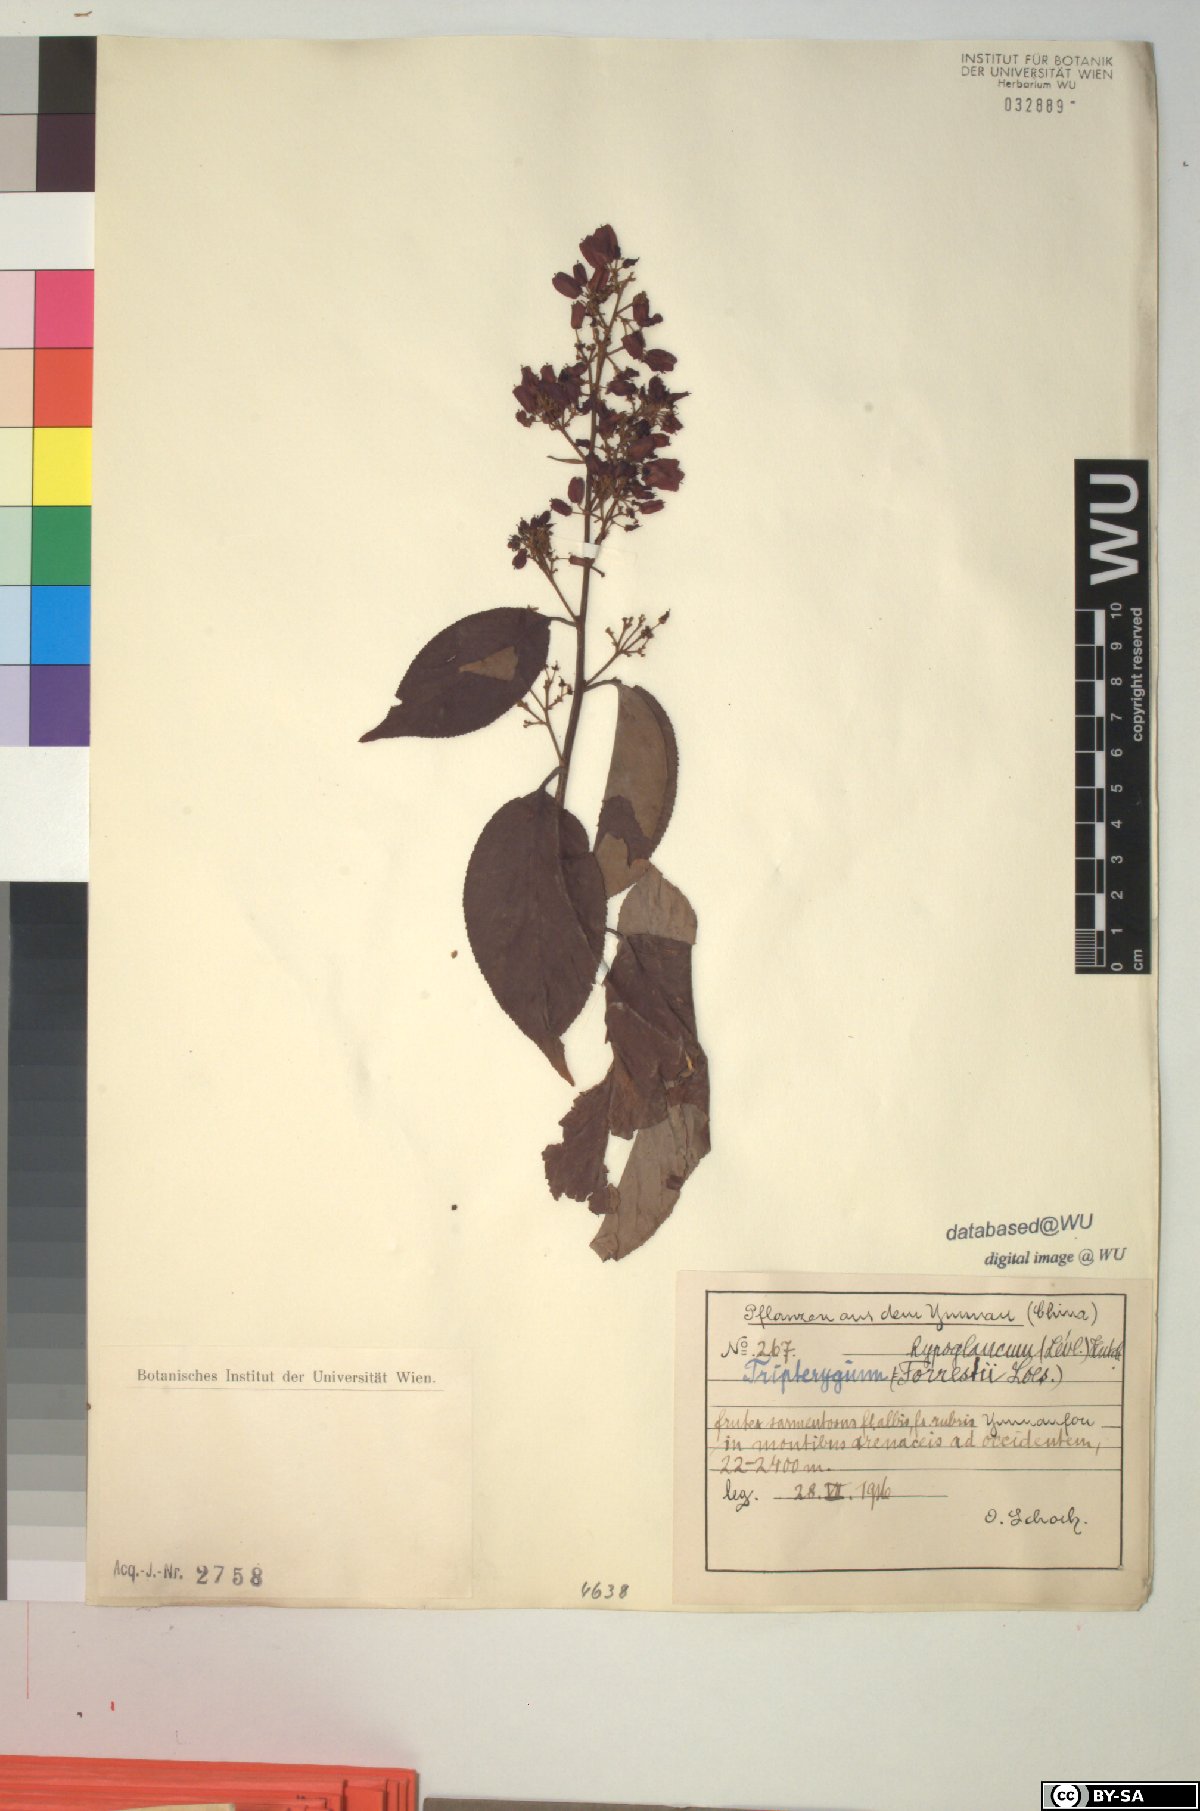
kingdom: Plantae
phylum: Tracheophyta
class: Magnoliopsida
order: Celastrales
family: Celastraceae
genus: Tripterygium
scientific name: Tripterygium wilfordii
